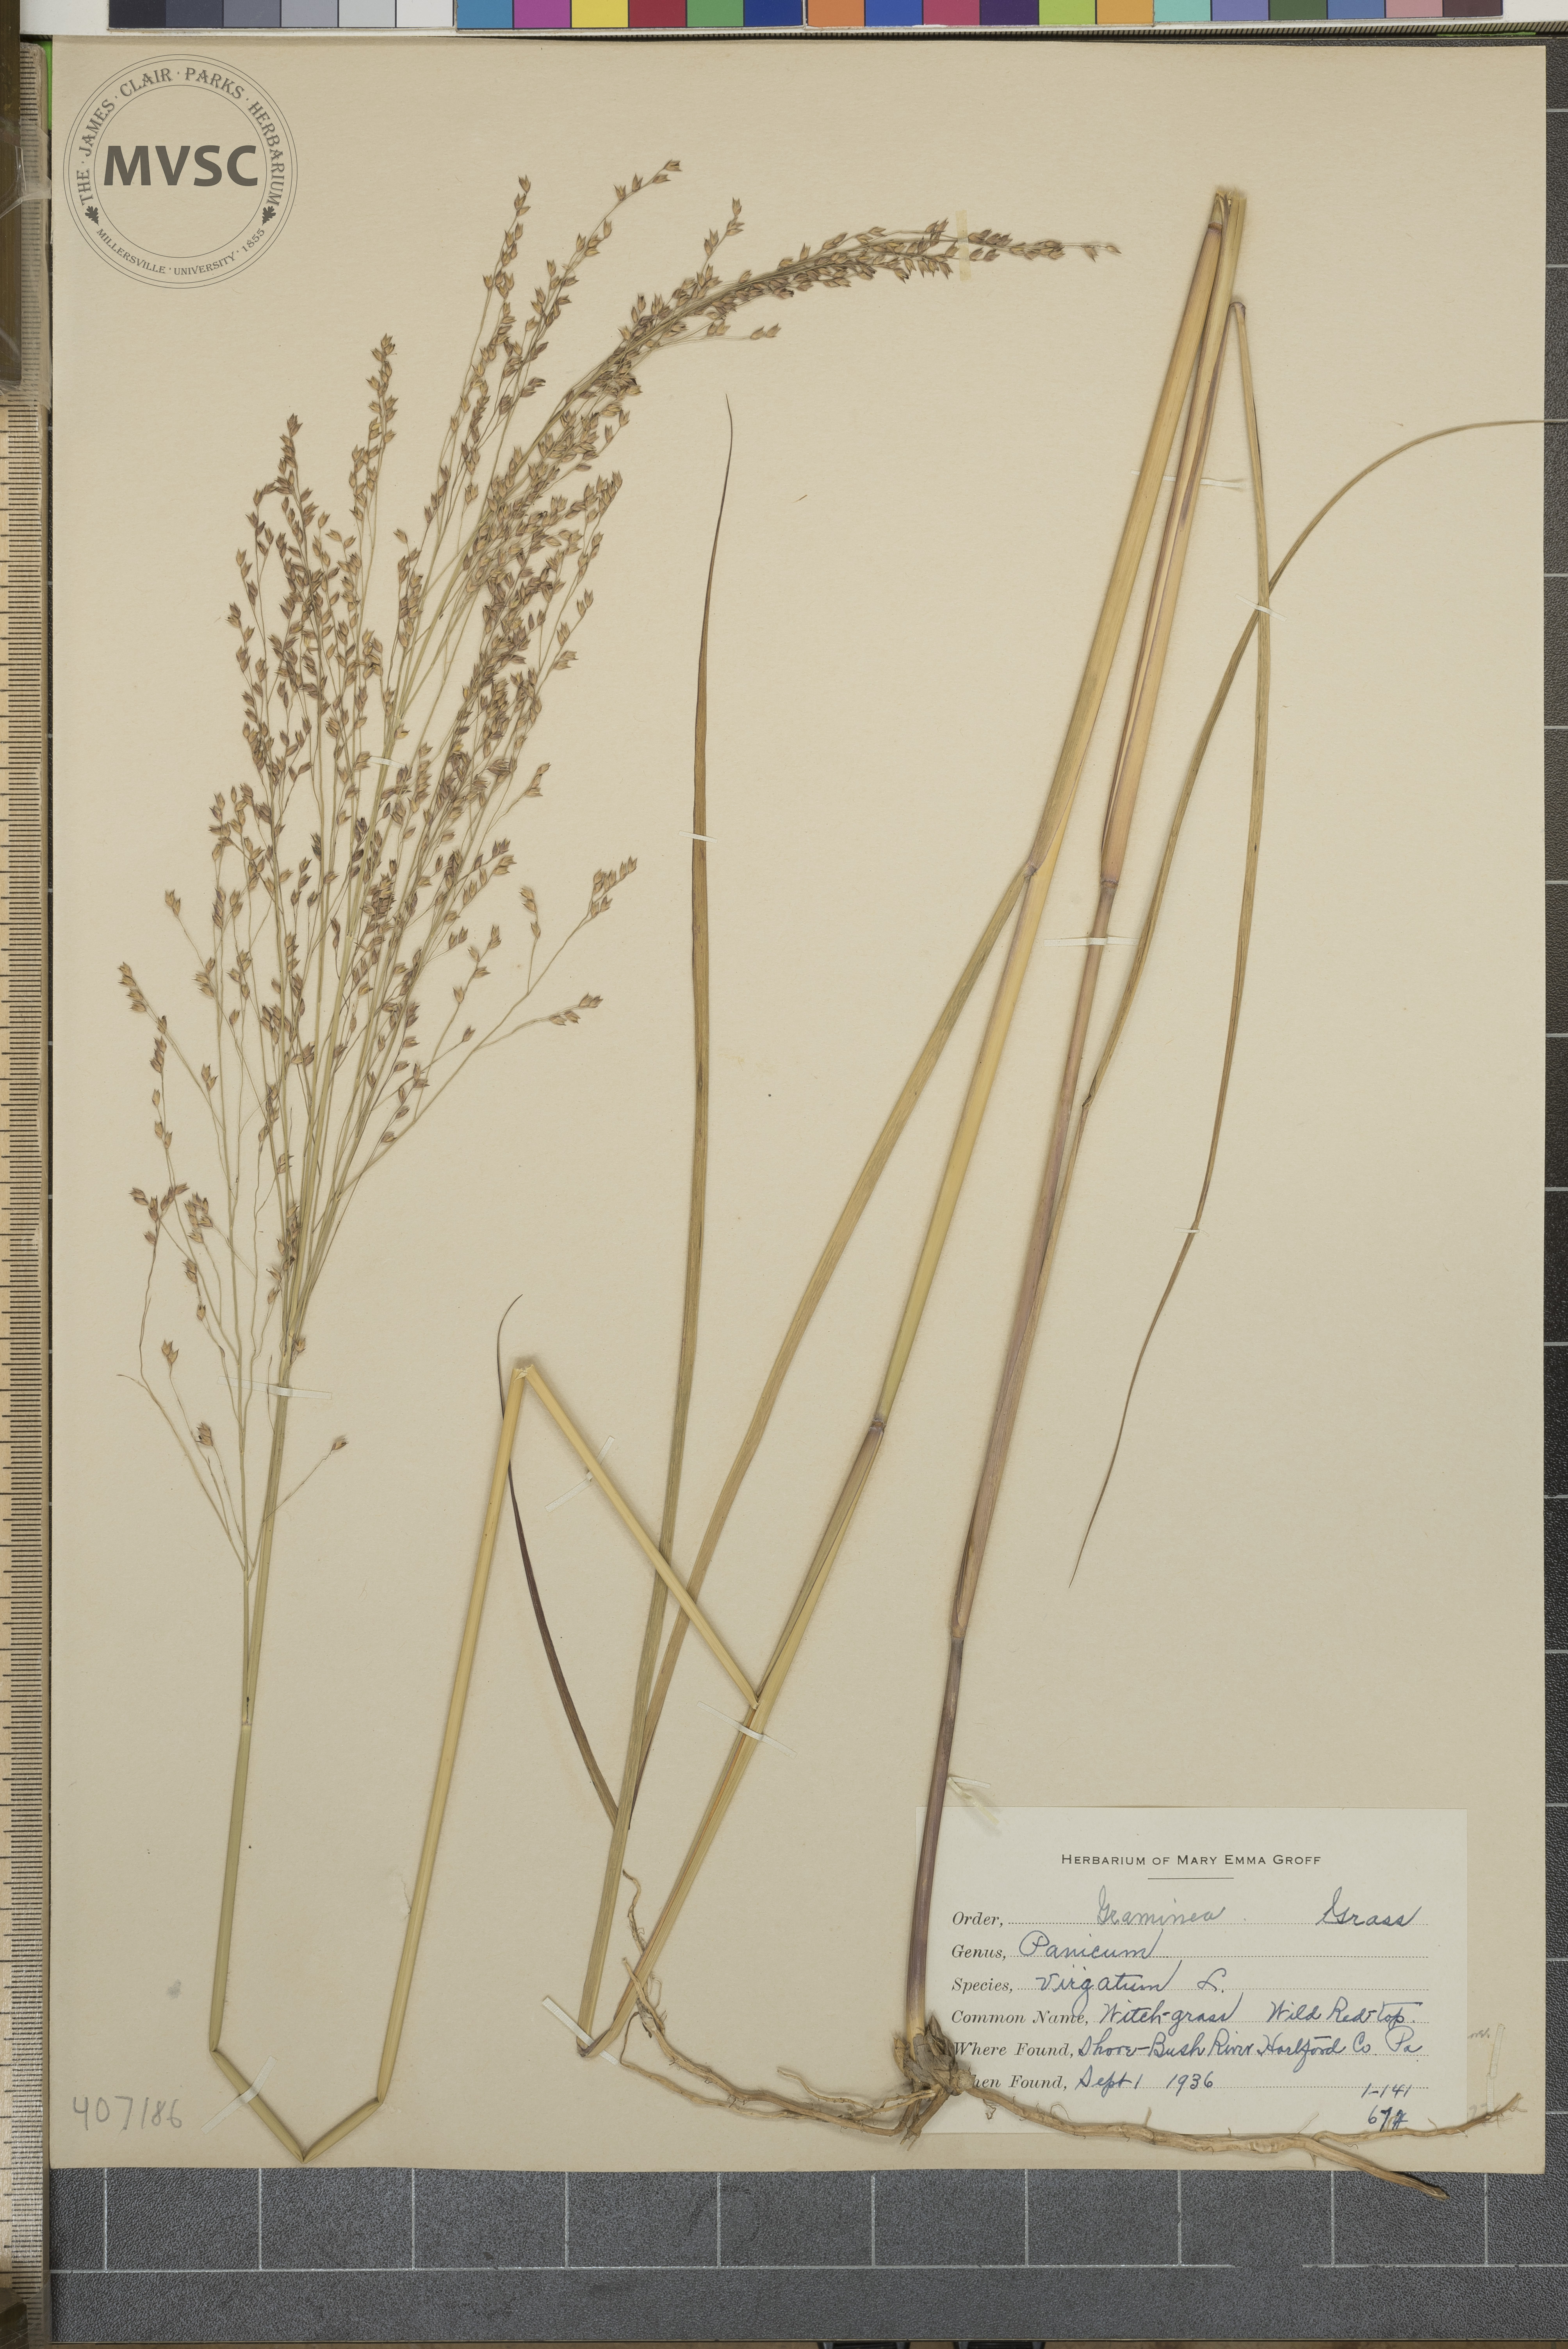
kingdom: Plantae
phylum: Tracheophyta
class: Liliopsida
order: Poales
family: Poaceae
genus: Panicum
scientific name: Panicum virgatum
